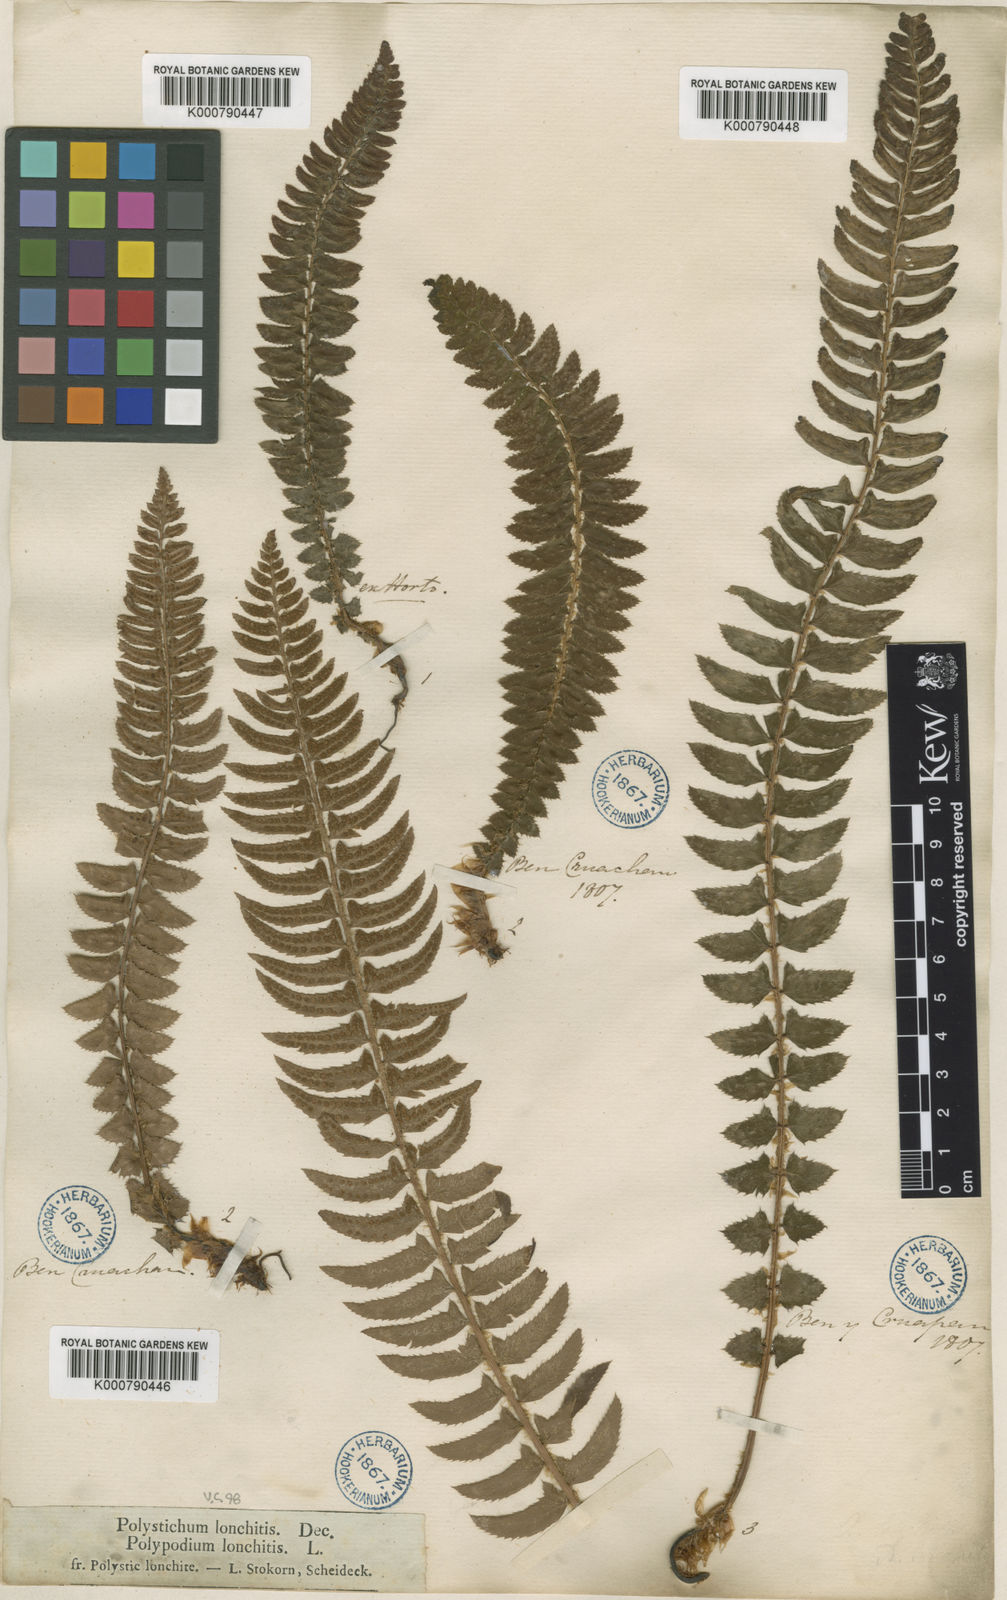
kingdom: Plantae
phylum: Tracheophyta
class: Polypodiopsida
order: Polypodiales
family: Dryopteridaceae
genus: Polystichum
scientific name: Polystichum
